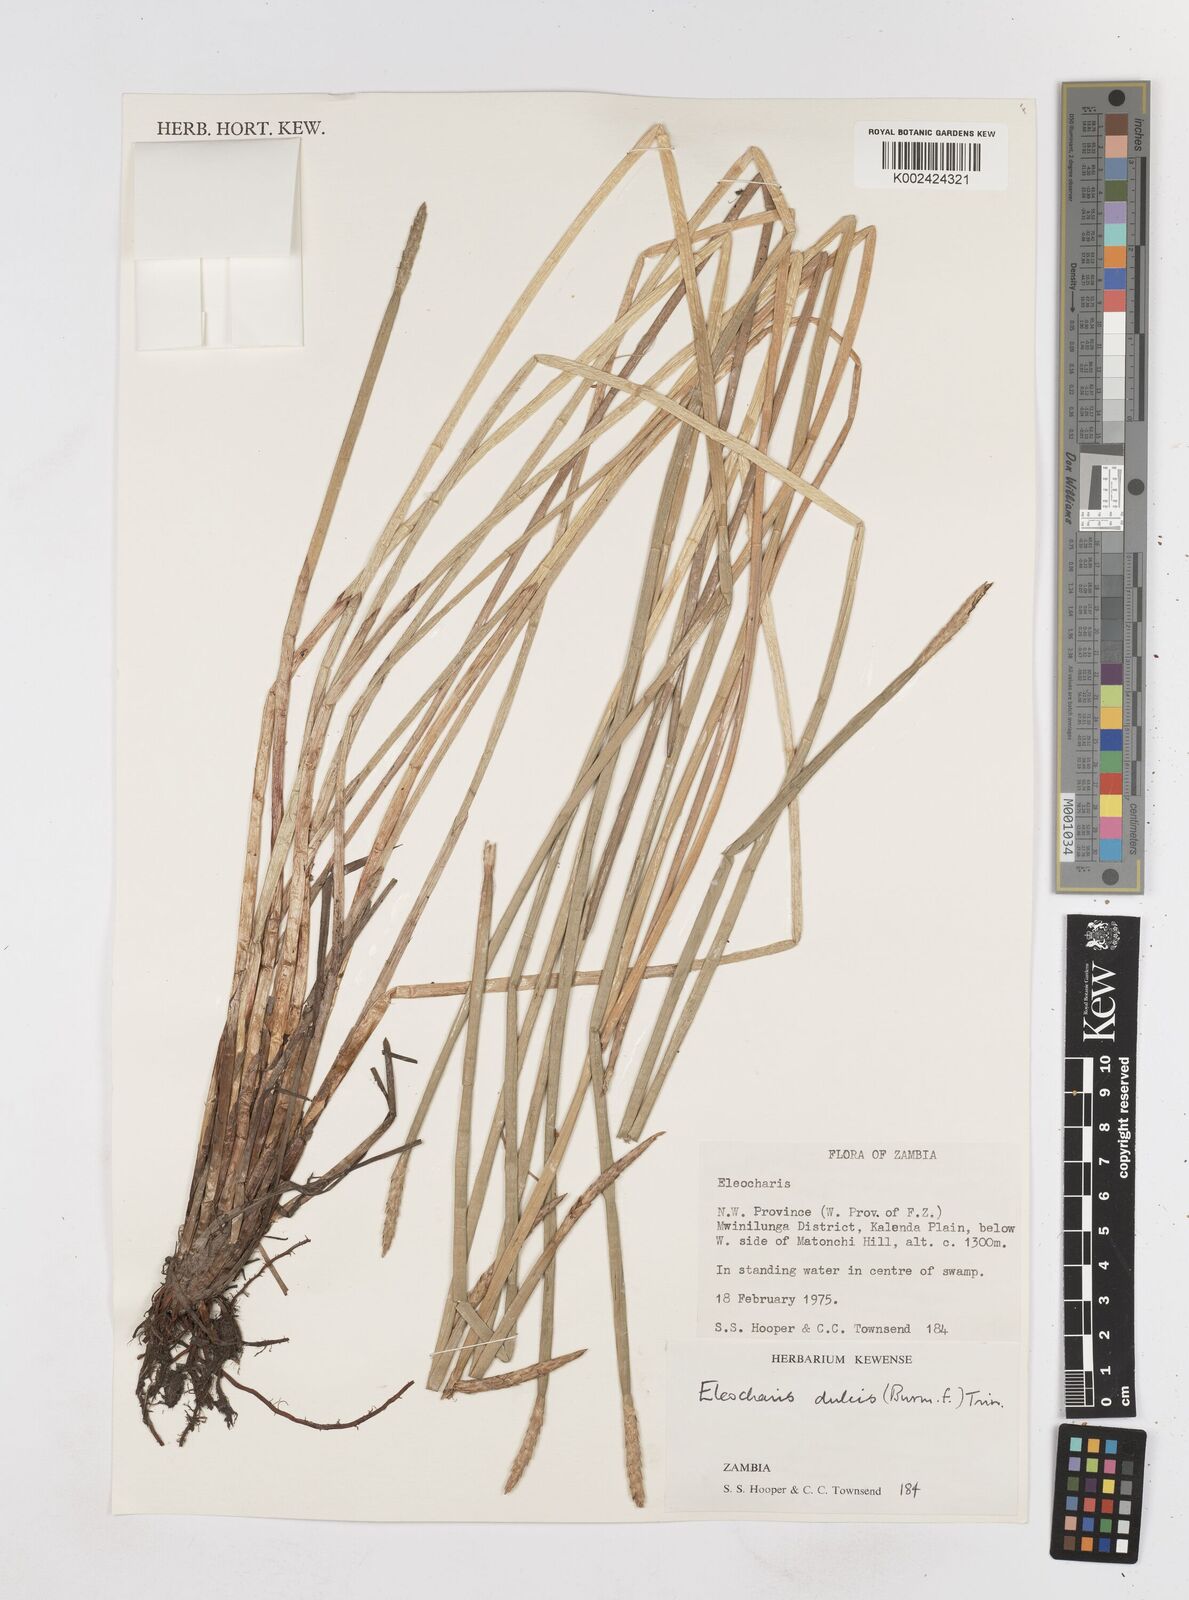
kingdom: Plantae
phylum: Tracheophyta
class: Liliopsida
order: Poales
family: Cyperaceae
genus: Eleocharis
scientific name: Eleocharis dulcis
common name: Chinese water chestnut
